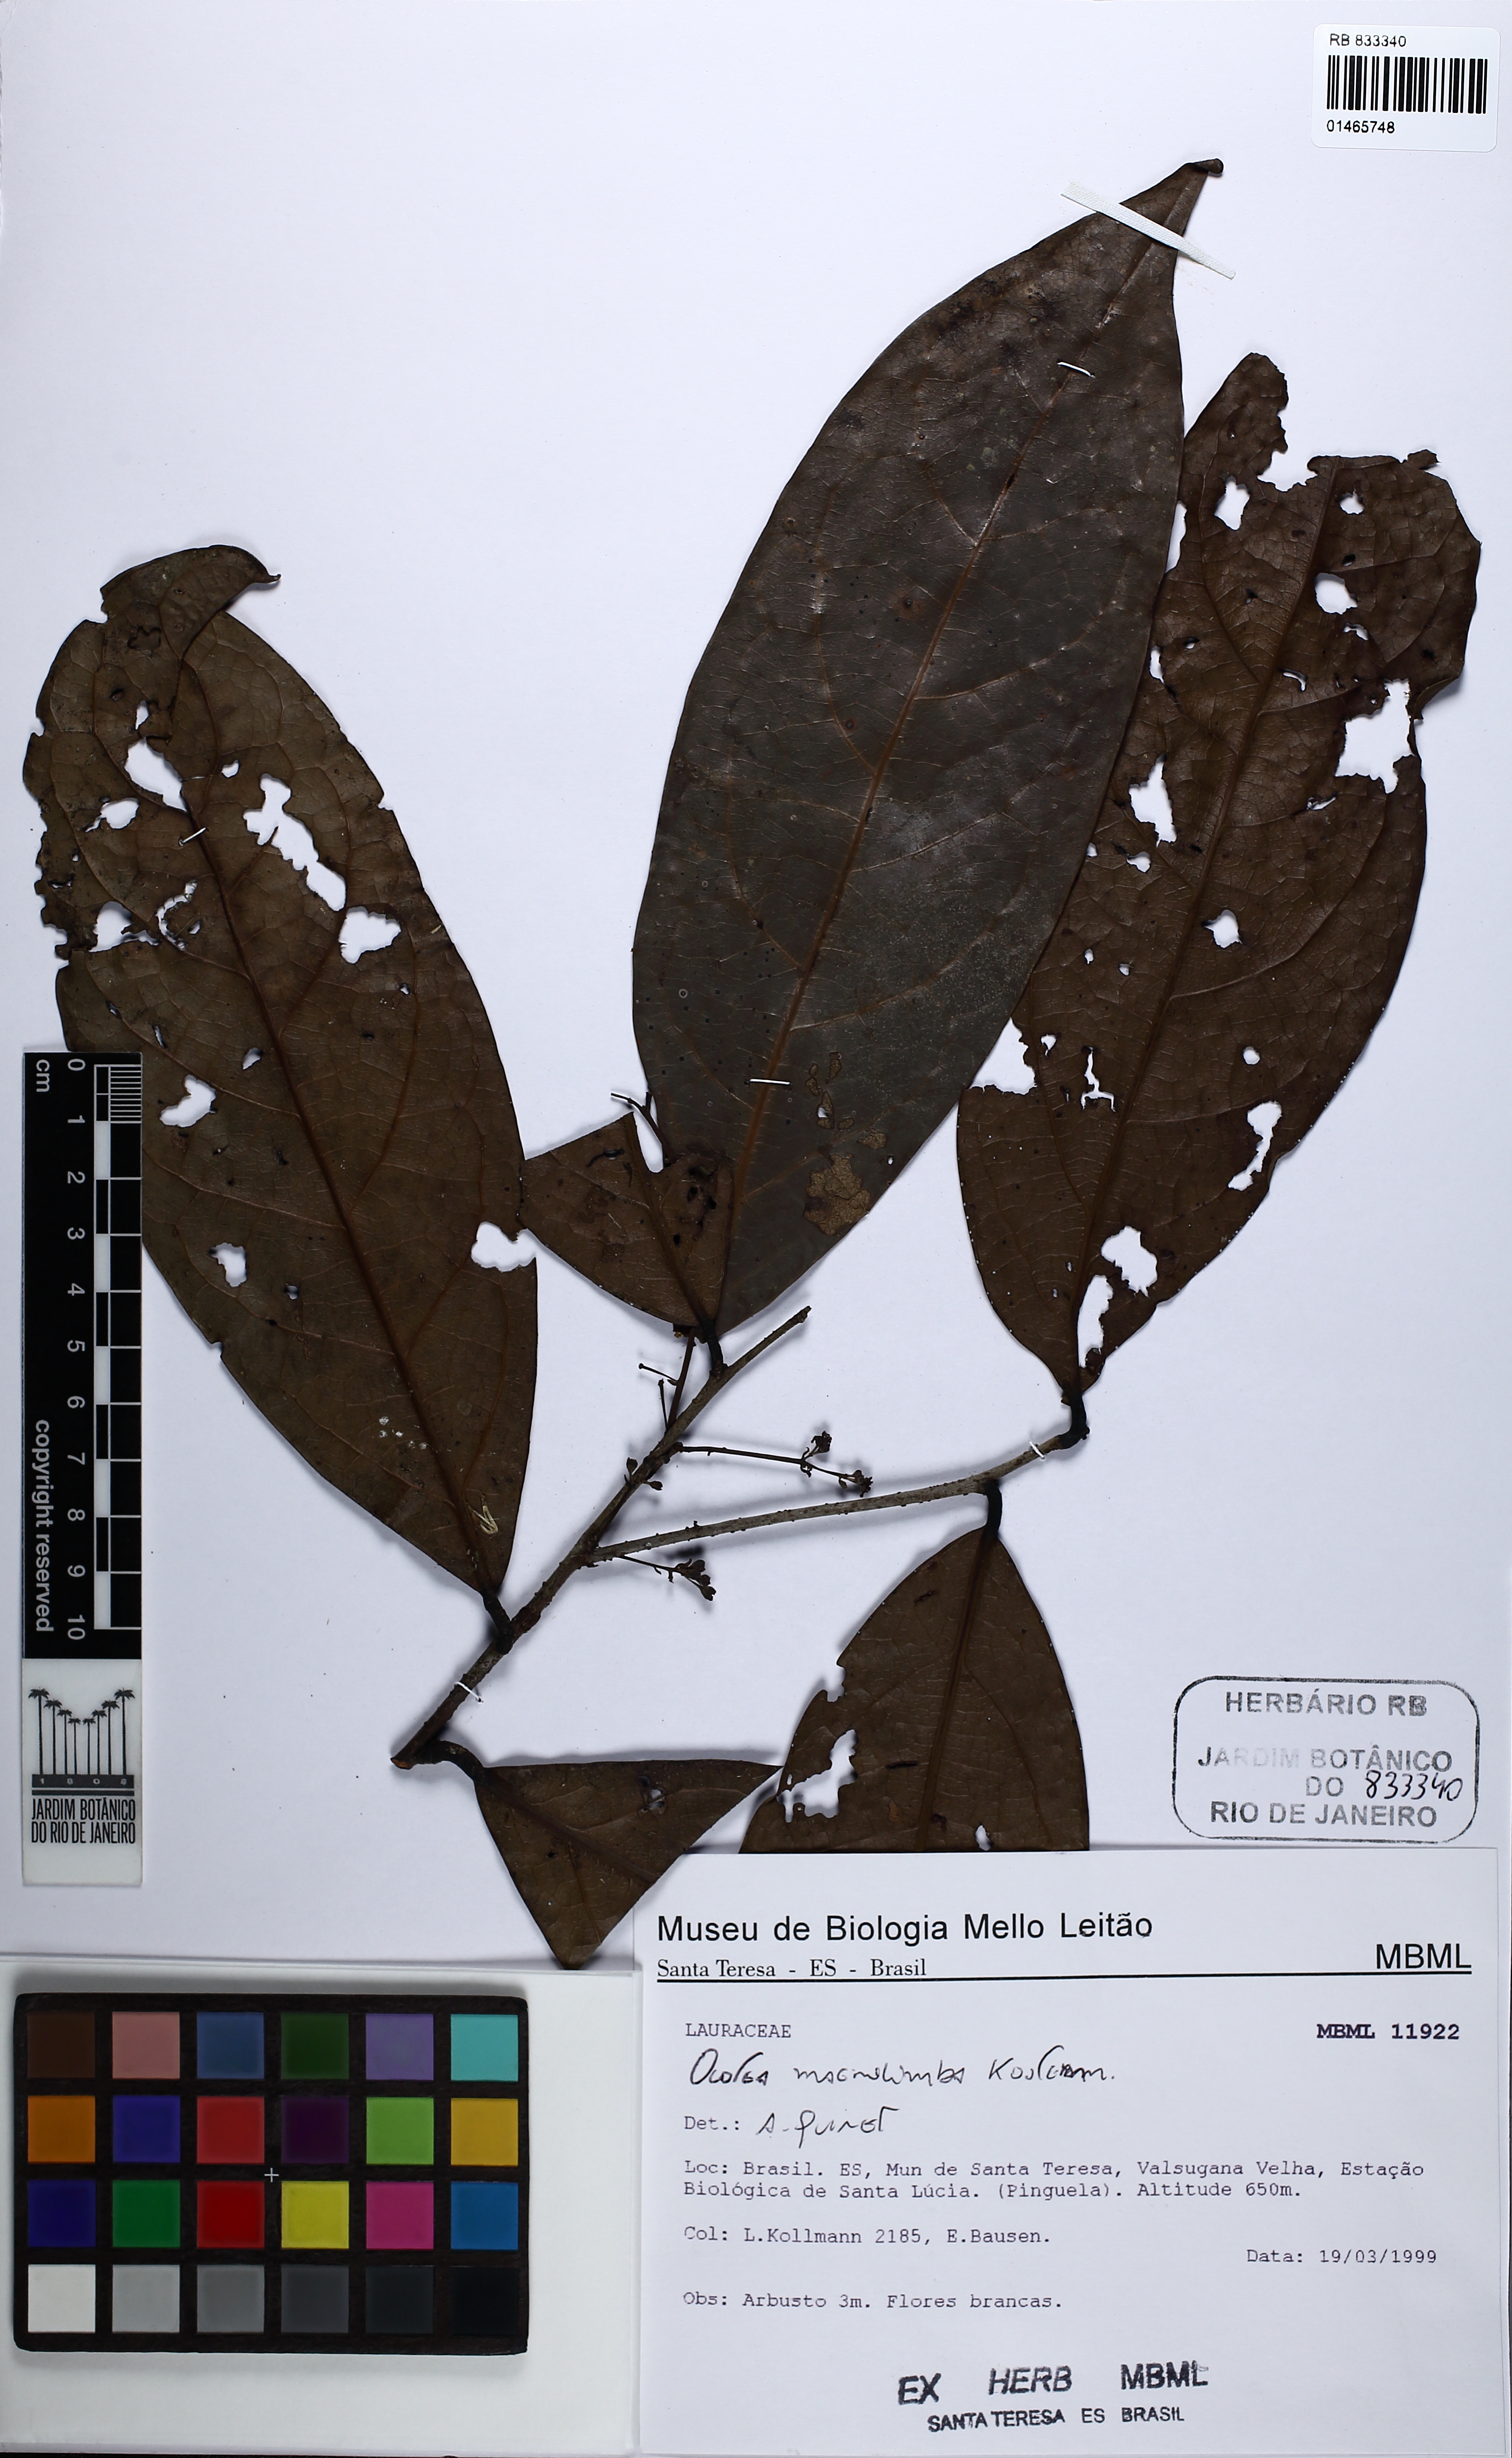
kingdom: Plantae
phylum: Tracheophyta
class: Magnoliopsida
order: Laurales
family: Lauraceae
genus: Ocotea
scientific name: Ocotea magnilimba
